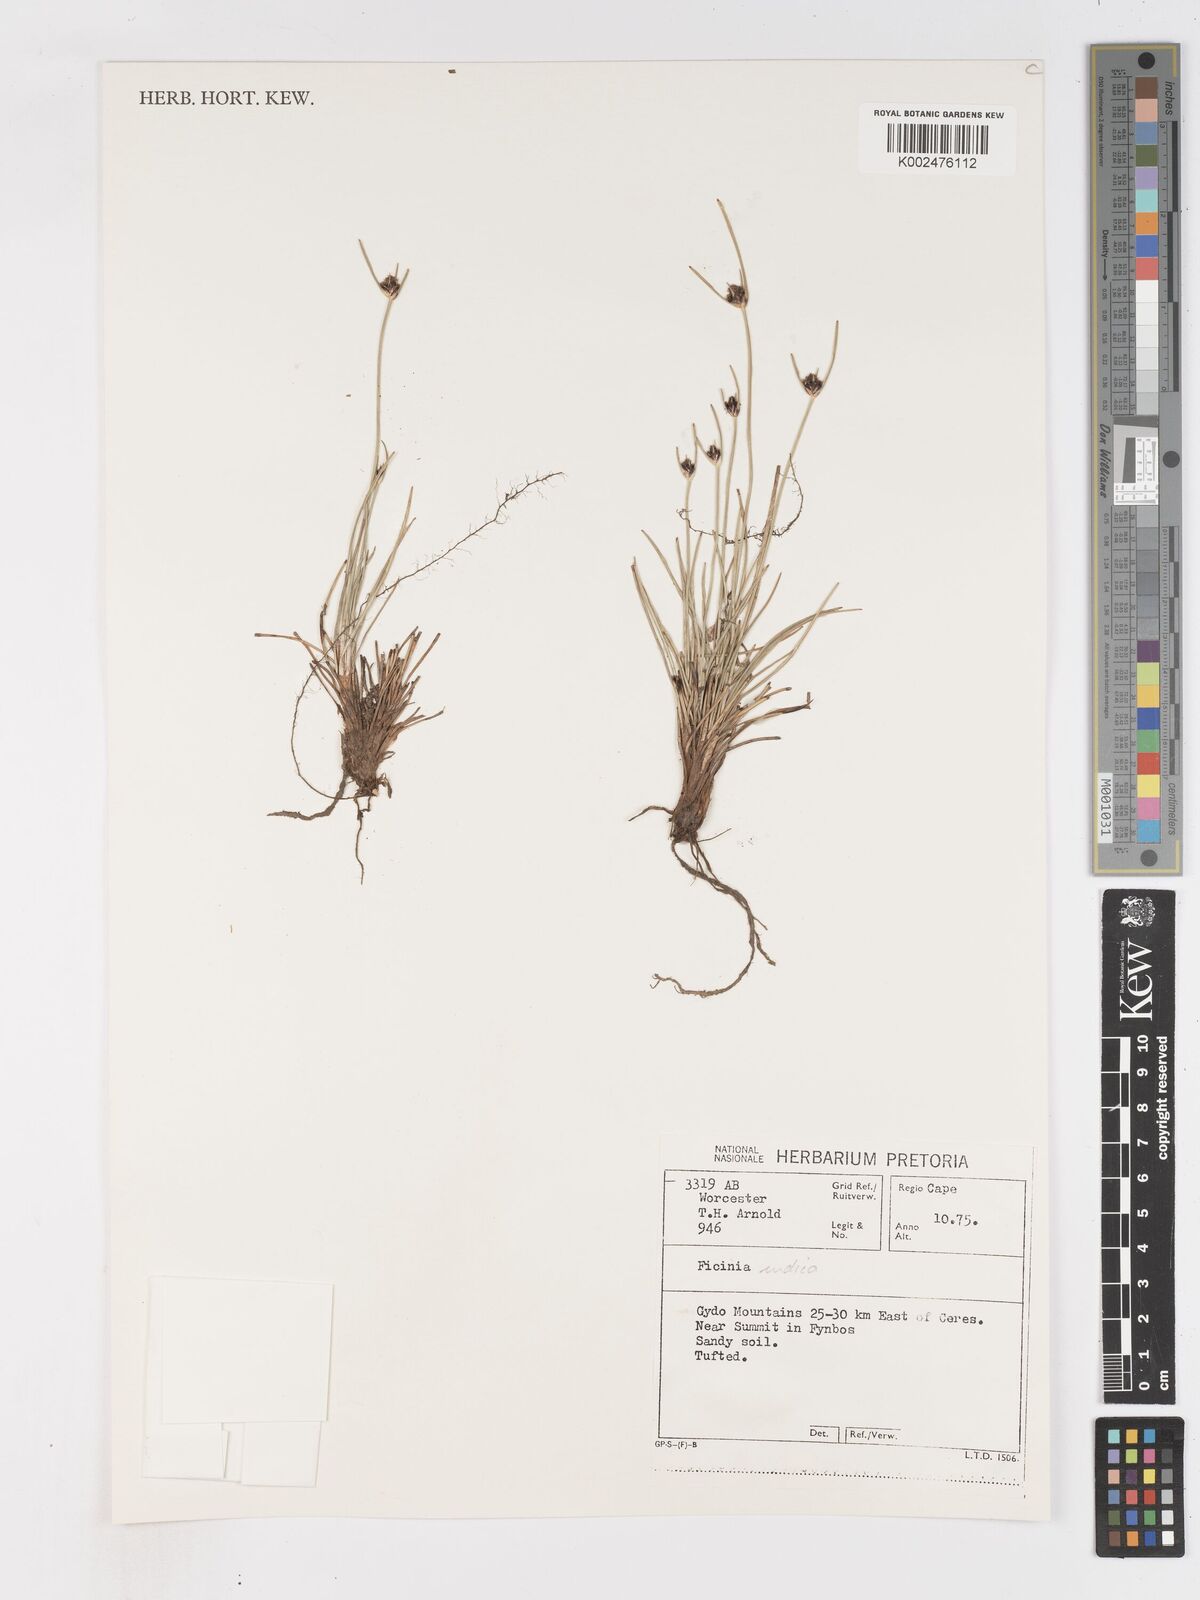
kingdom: Plantae
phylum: Tracheophyta
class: Liliopsida
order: Poales
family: Cyperaceae
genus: Ficinia
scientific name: Ficinia indica
